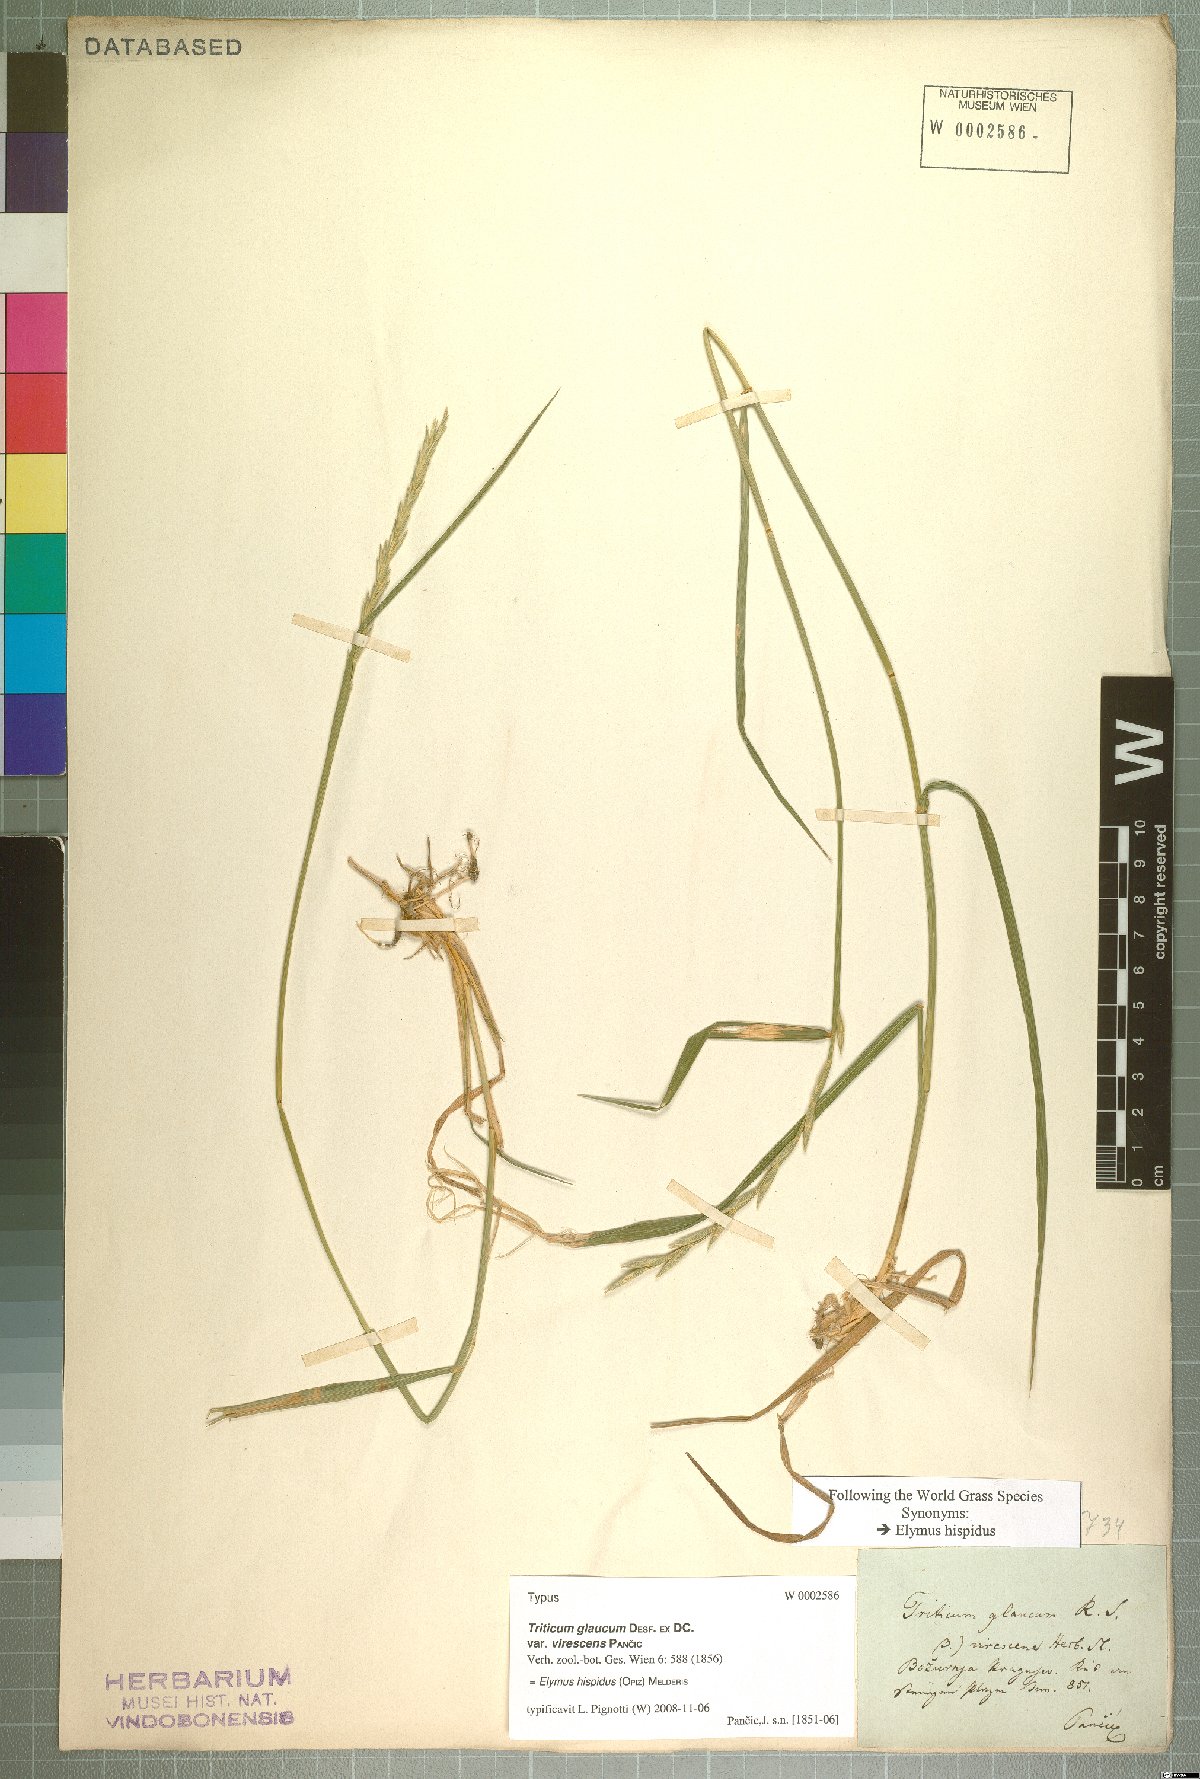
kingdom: Plantae
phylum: Tracheophyta
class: Liliopsida
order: Poales
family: Poaceae
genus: Thinopyrum
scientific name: Thinopyrum intermedium
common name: Intermediate wheatgrass
